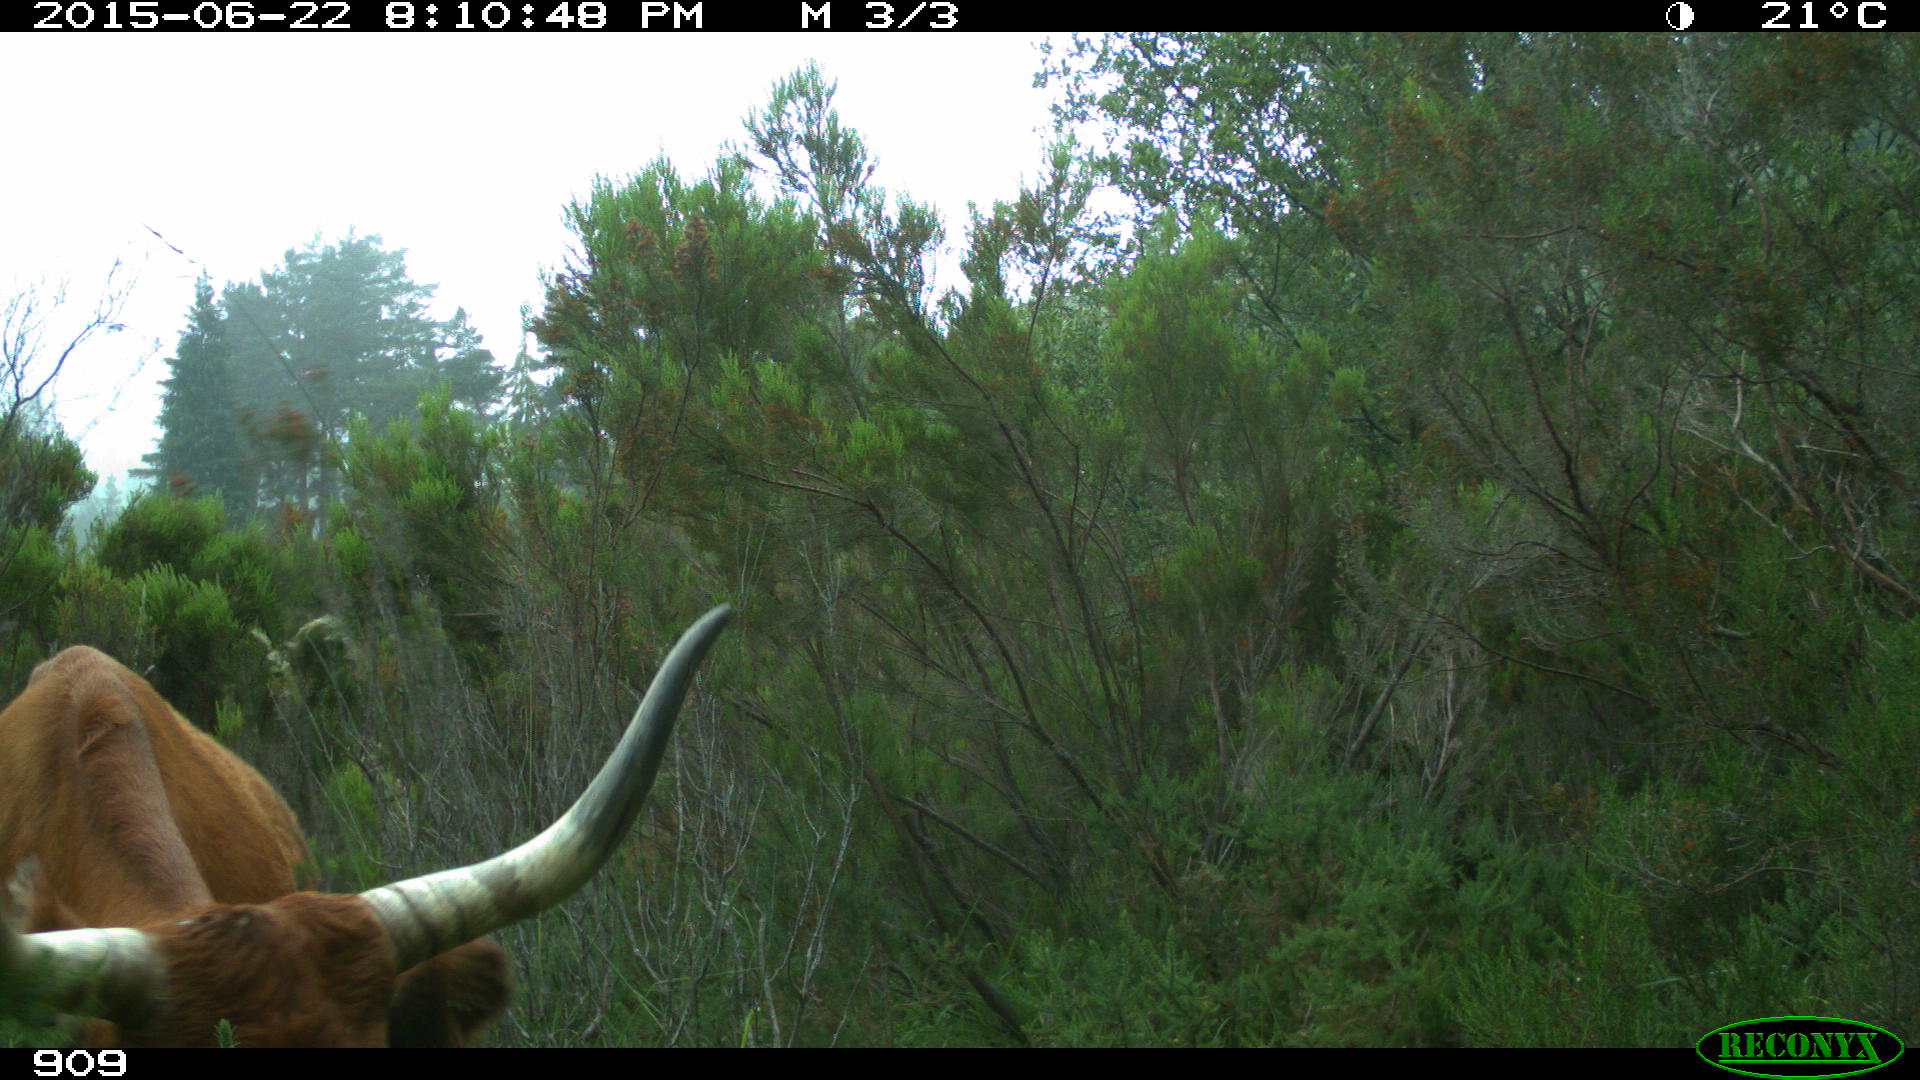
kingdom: Animalia
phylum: Chordata
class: Mammalia
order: Artiodactyla
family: Bovidae
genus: Bos
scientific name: Bos taurus
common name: Domesticated cattle
